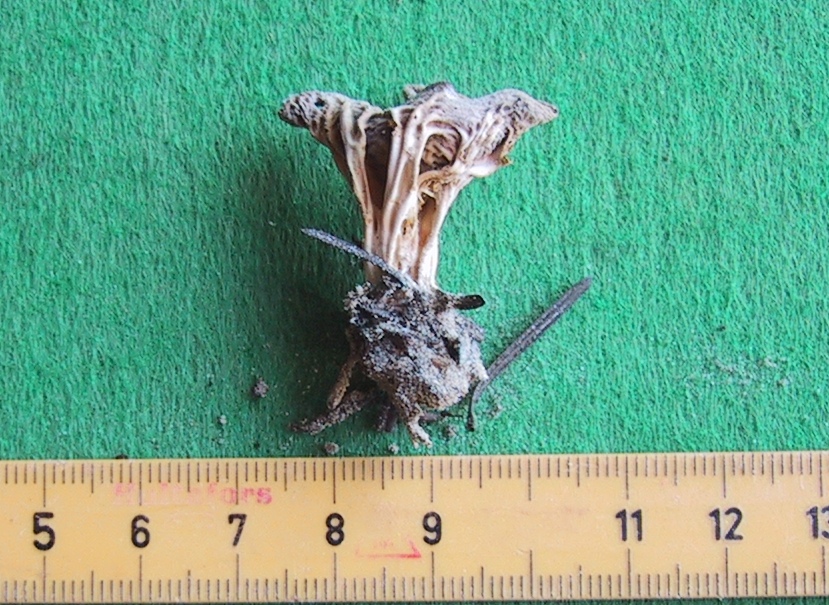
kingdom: Fungi
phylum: Ascomycota
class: Pezizomycetes
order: Pezizales
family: Helvellaceae
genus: Helvella
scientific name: Helvella calycina
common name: ribbet foldhat
